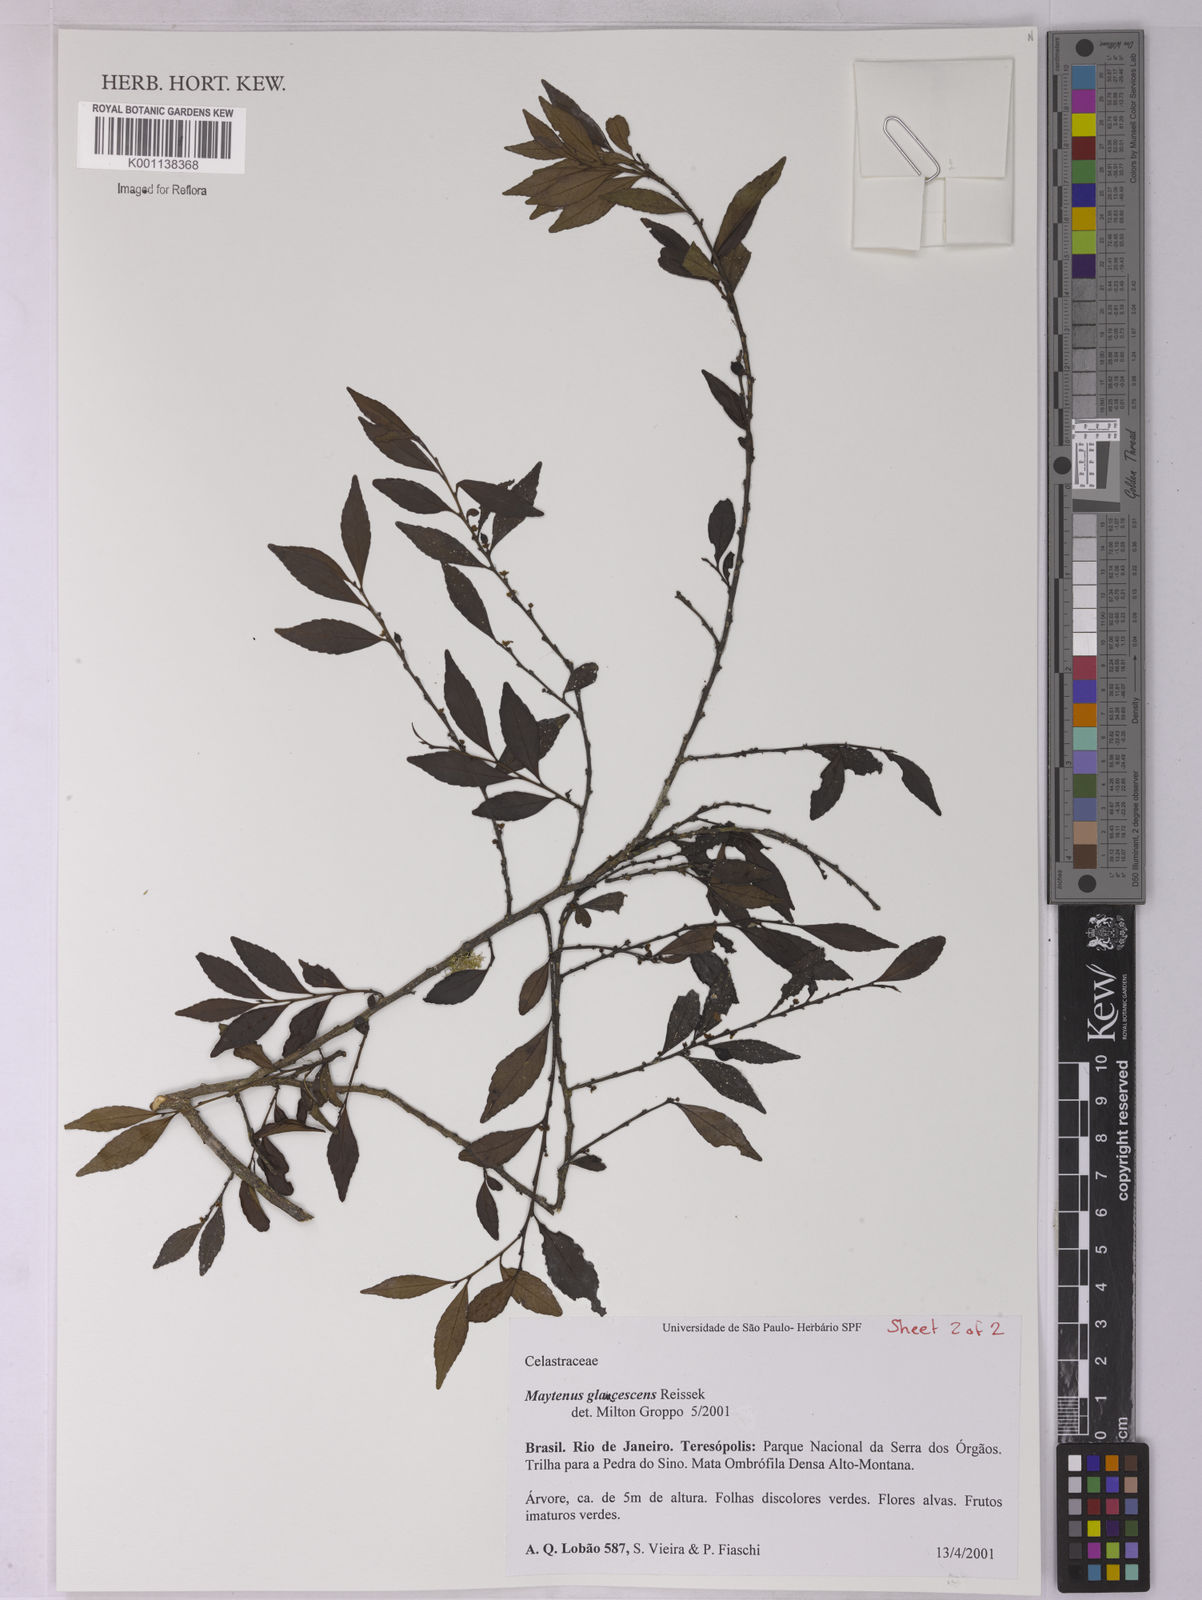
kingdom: Plantae
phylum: Tracheophyta
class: Magnoliopsida
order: Celastrales
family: Celastraceae
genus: Monteverdia
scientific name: Monteverdia glaucescens
